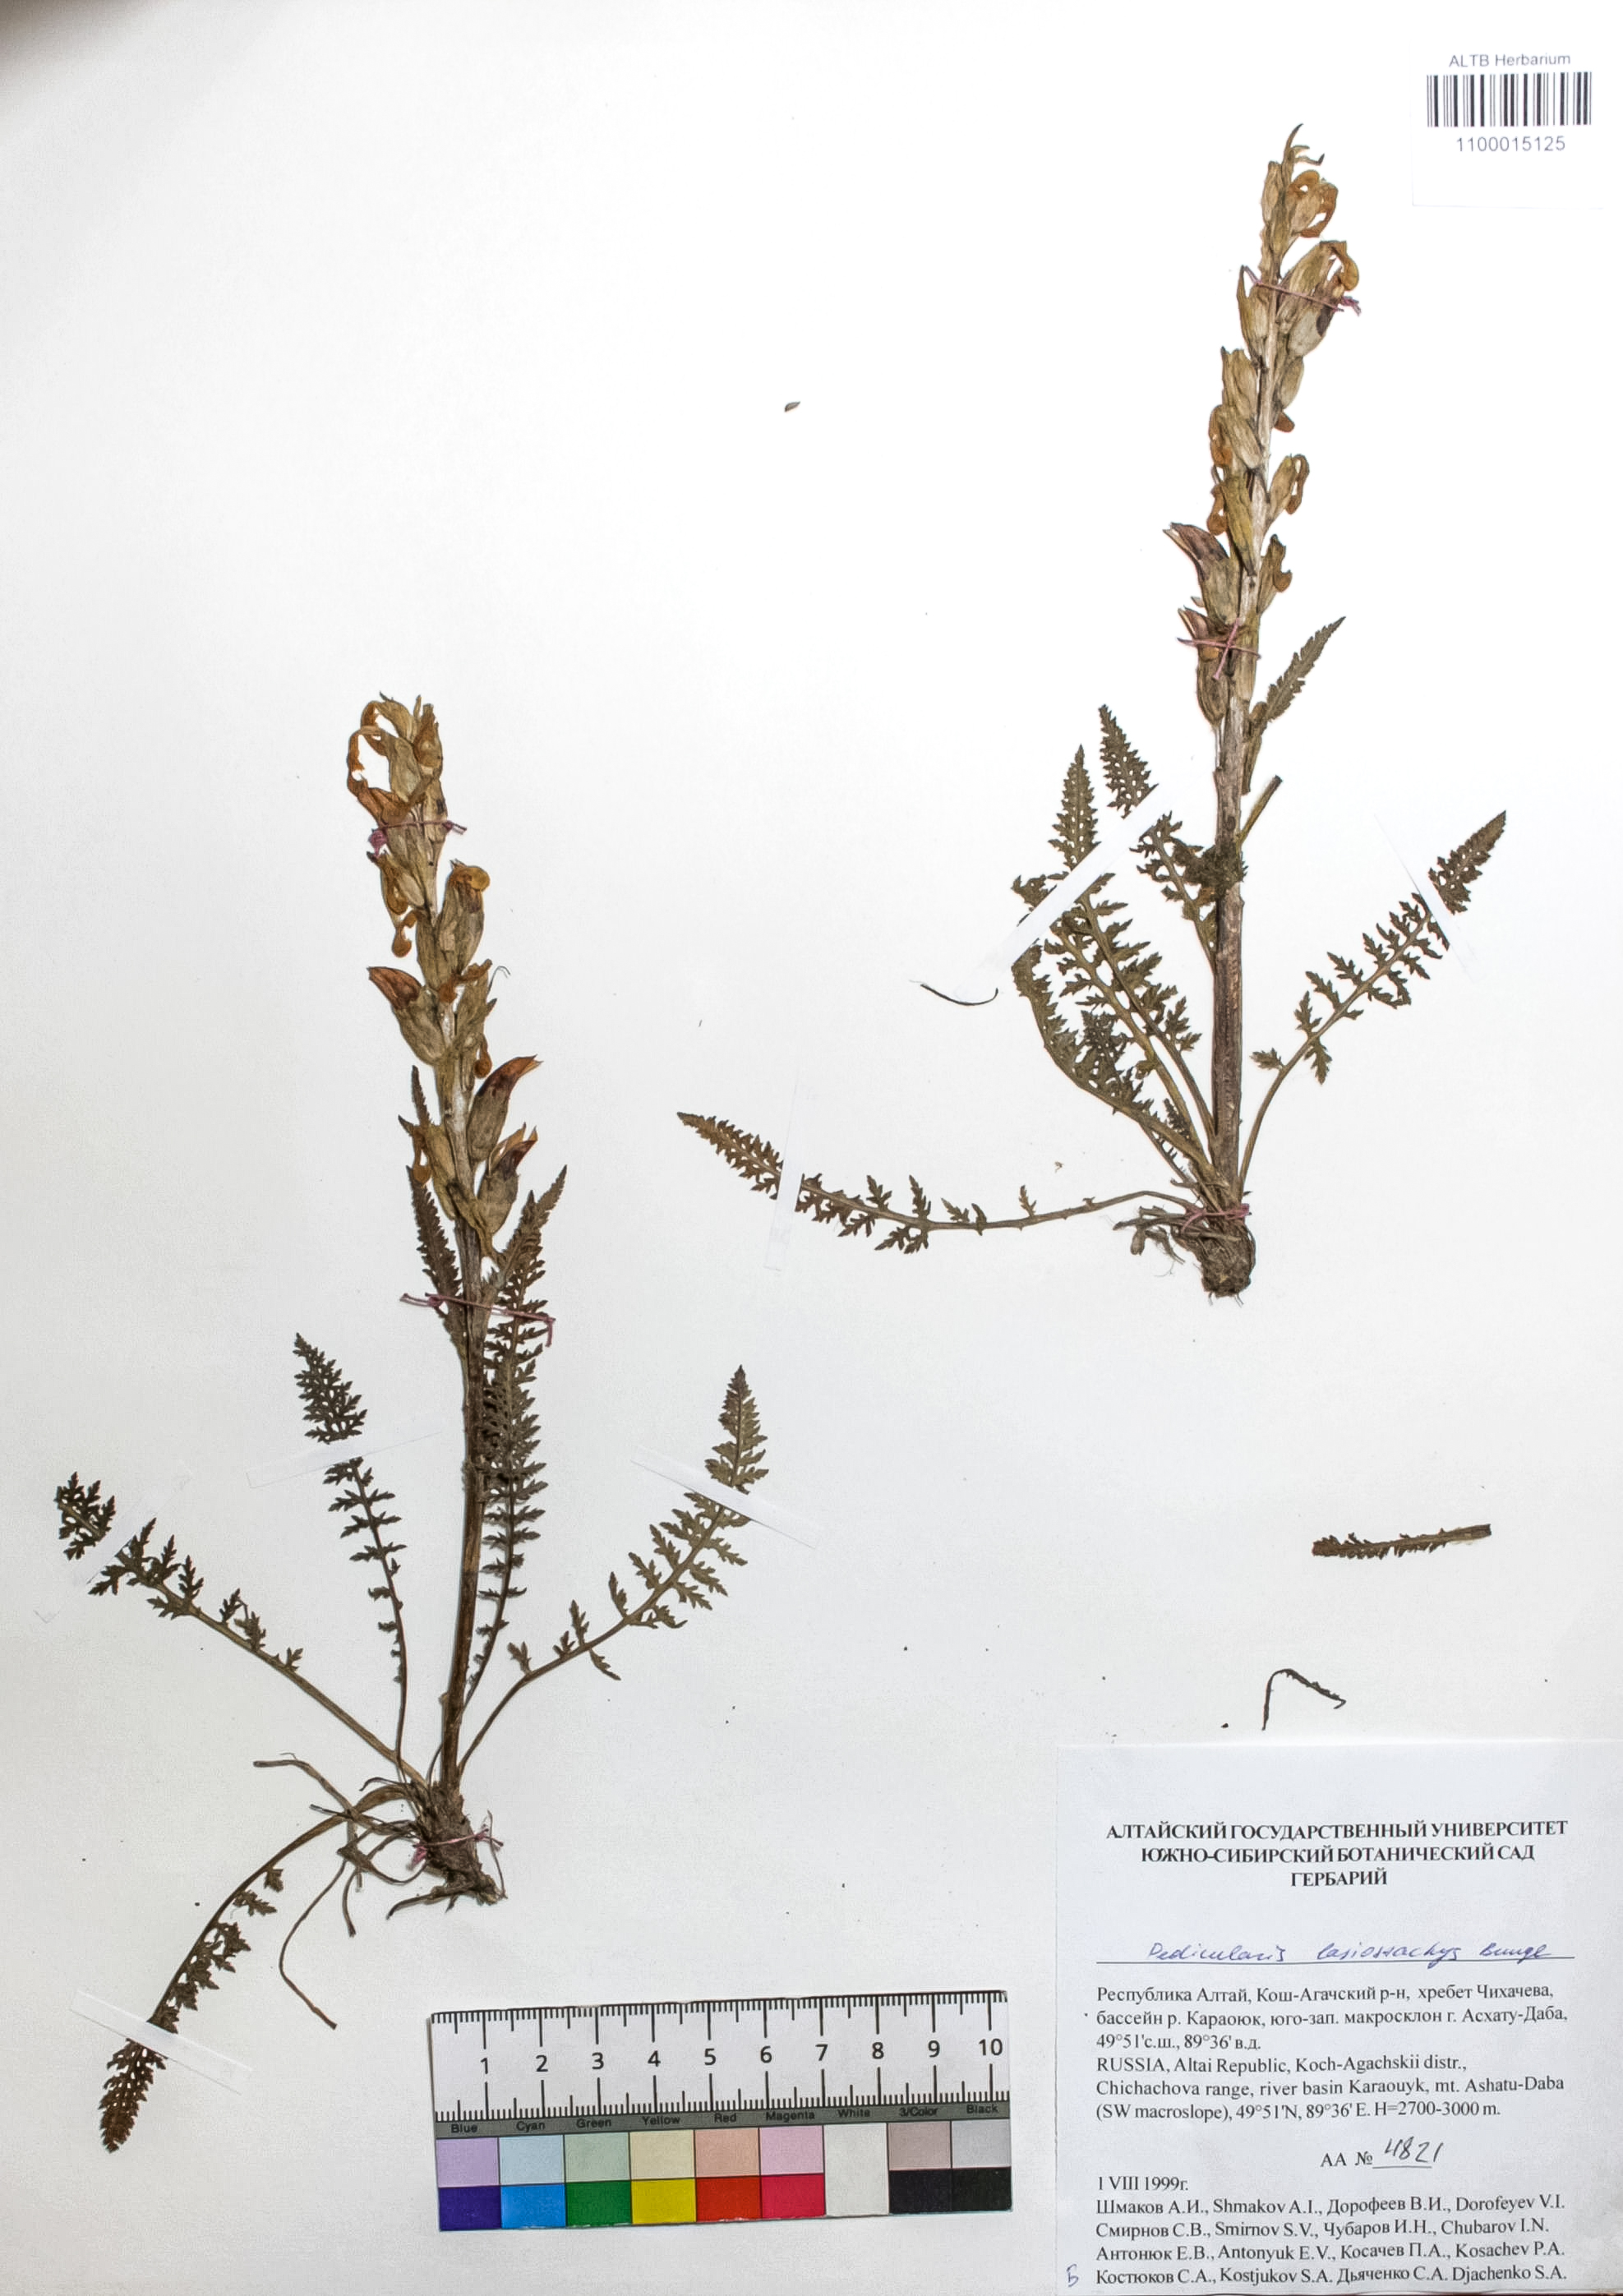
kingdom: Plantae
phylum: Tracheophyta
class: Magnoliopsida
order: Lamiales
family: Orobanchaceae
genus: Pedicularis
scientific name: Pedicularis lasiostachys
